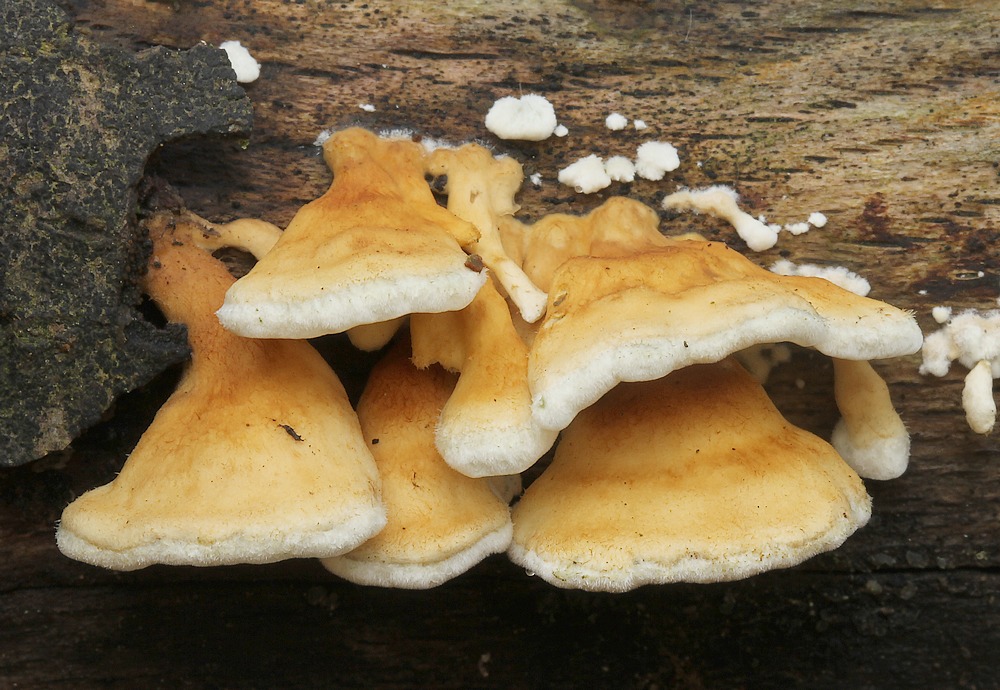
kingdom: Fungi
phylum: Basidiomycota
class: Agaricomycetes
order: Amylocorticiales
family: Amylocorticiaceae
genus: Plicaturopsis
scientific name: Plicaturopsis crispa
